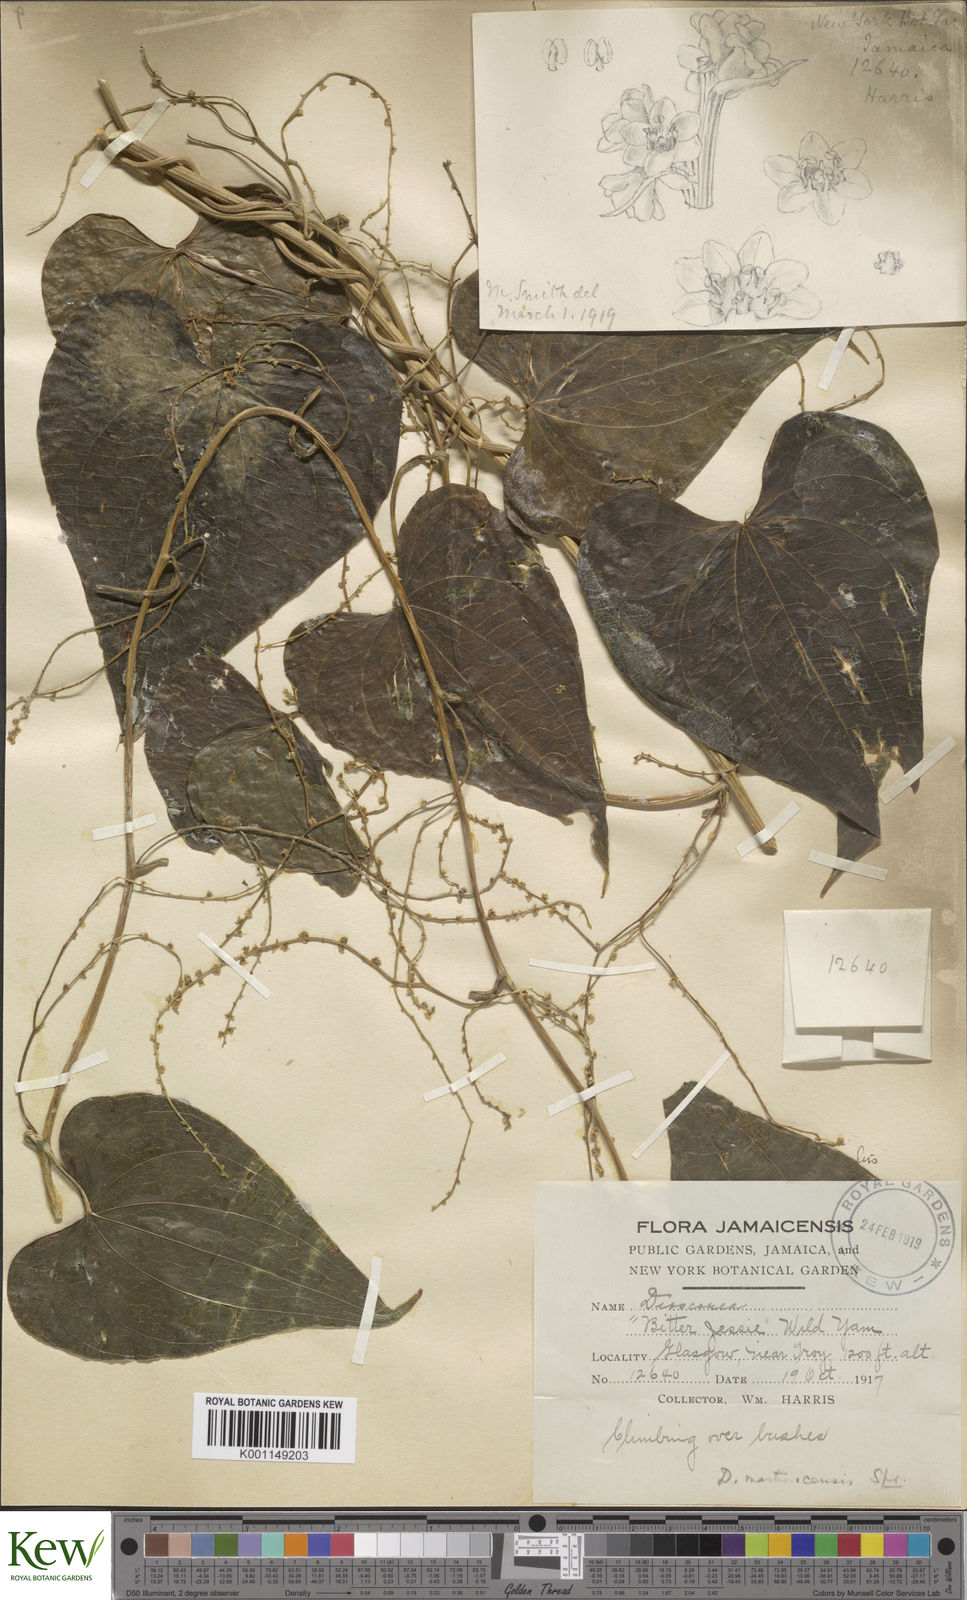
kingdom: Plantae
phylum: Tracheophyta
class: Liliopsida
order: Dioscoreales
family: Dioscoreaceae
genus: Dioscorea
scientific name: Dioscorea polygonoides
